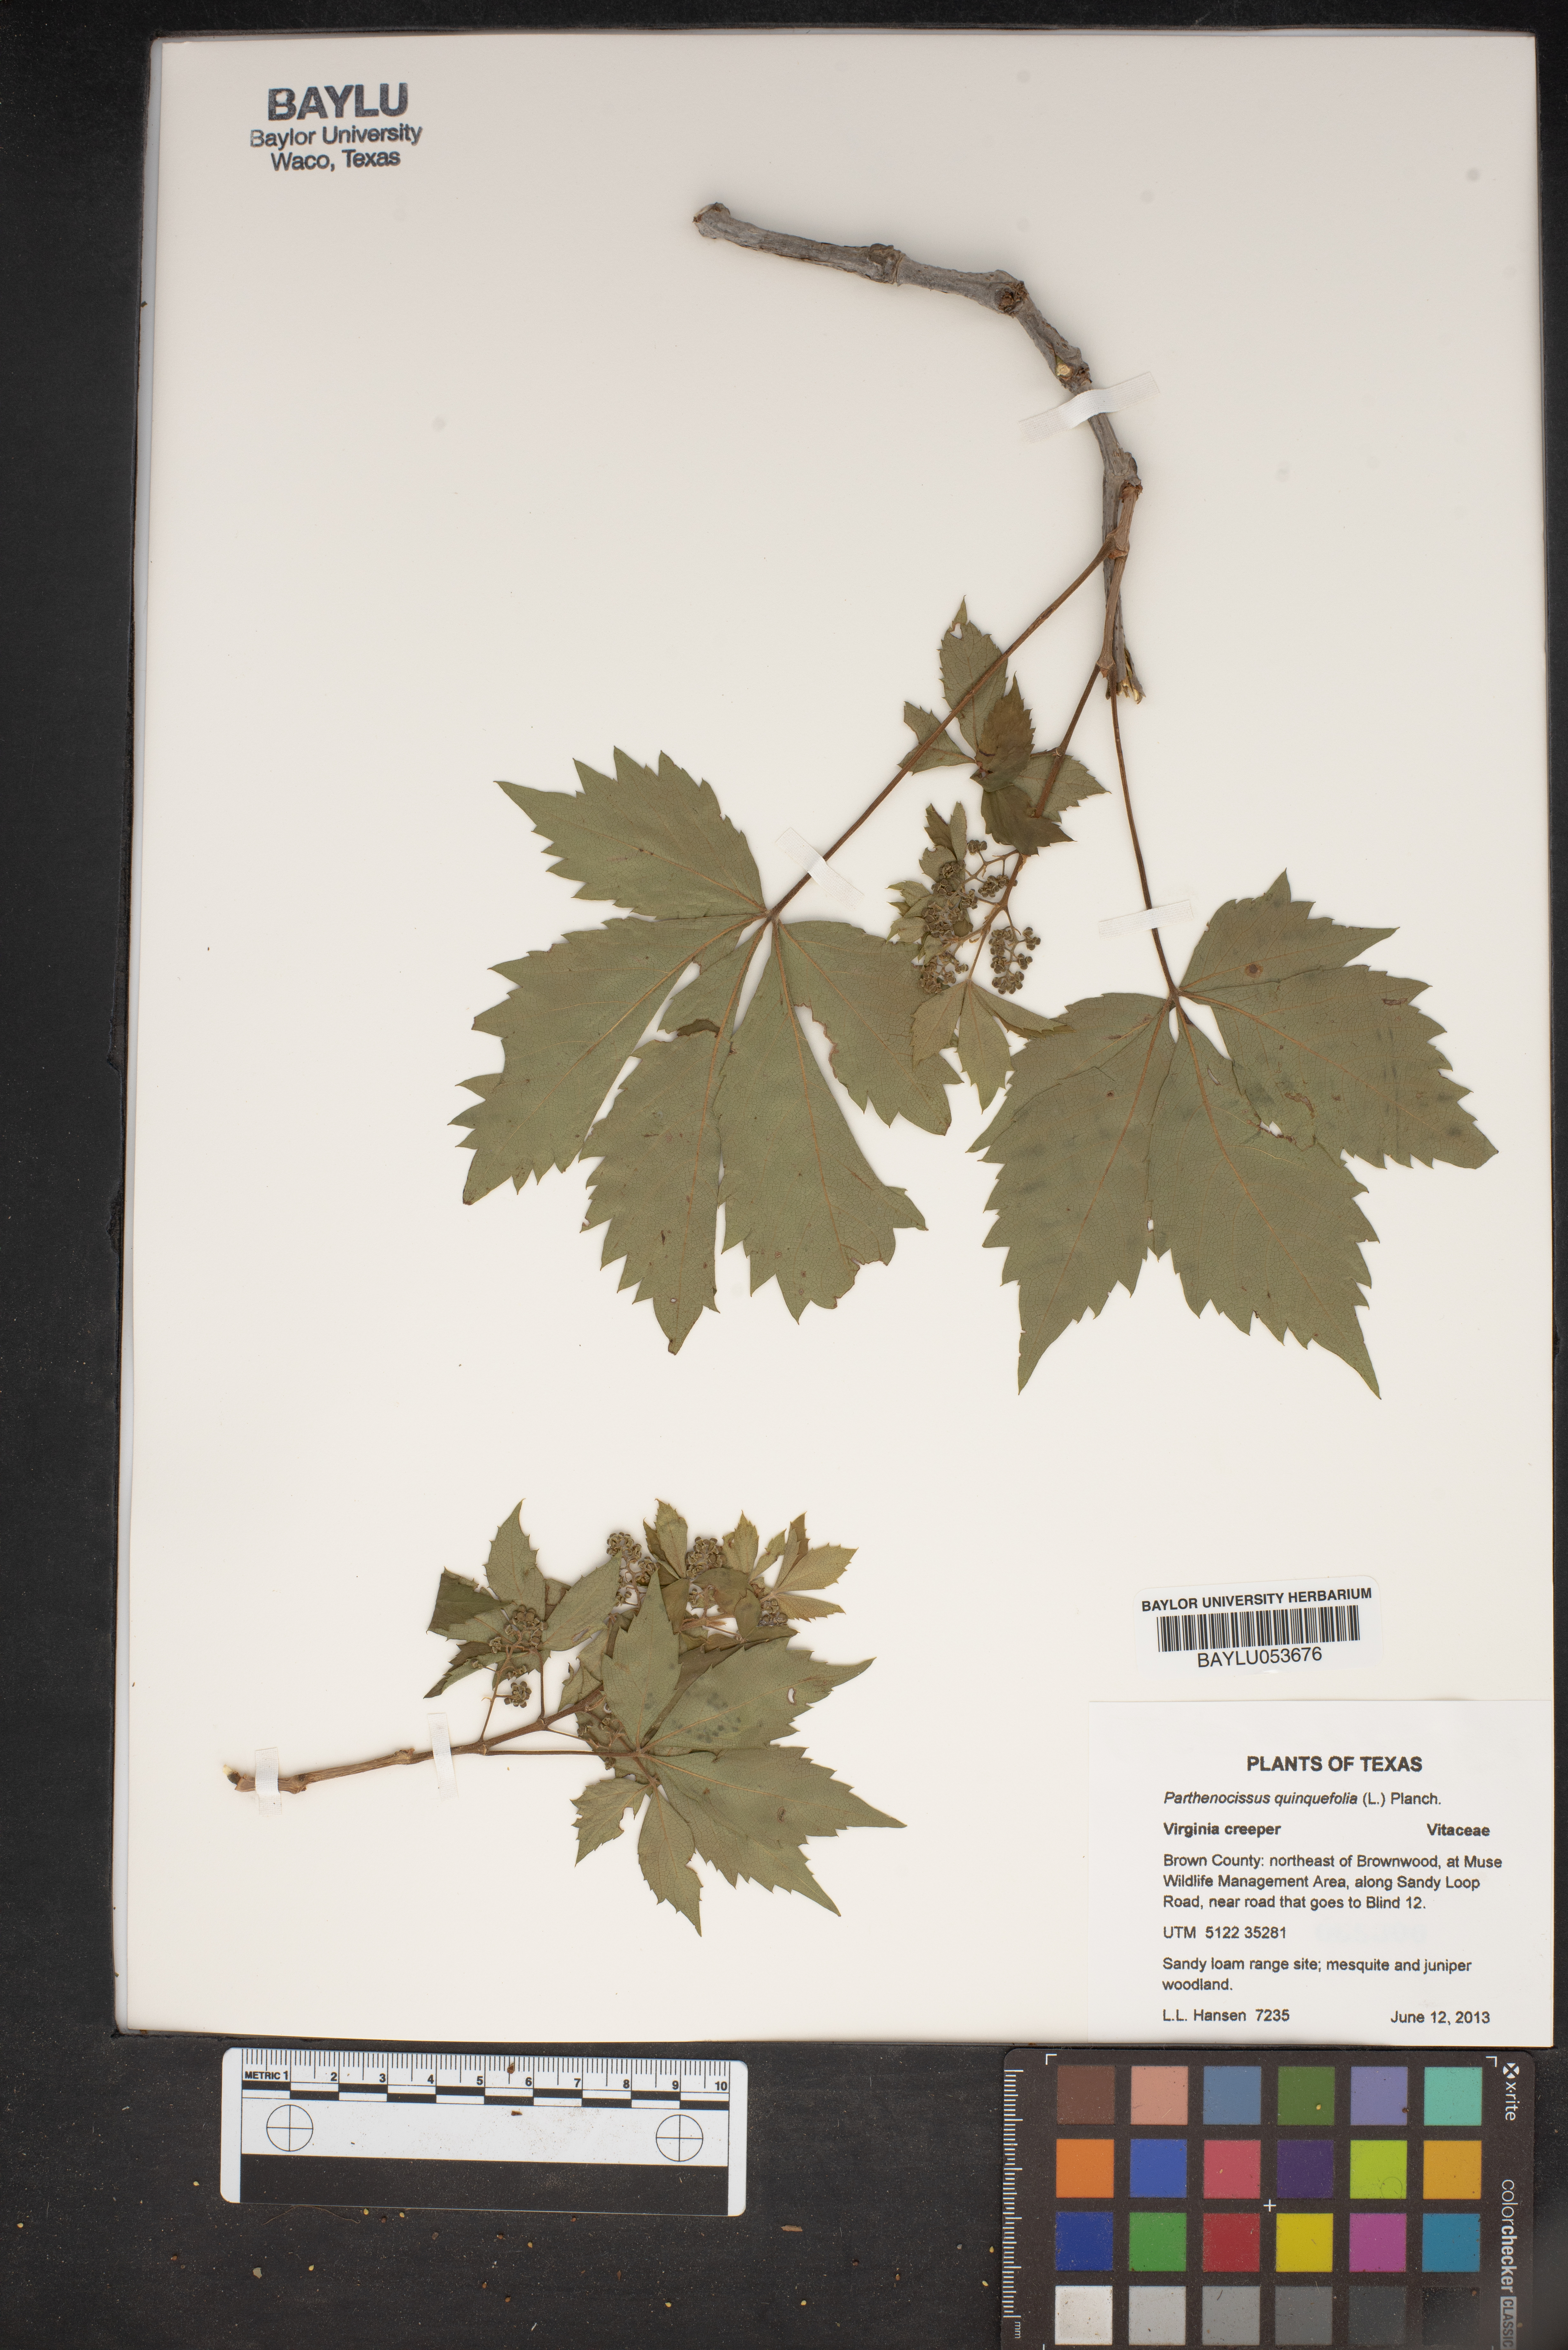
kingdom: Plantae
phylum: Tracheophyta
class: Magnoliopsida
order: Vitales
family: Vitaceae
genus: Parthenocissus
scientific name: Parthenocissus quinquefolia
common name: Virginia-creeper
